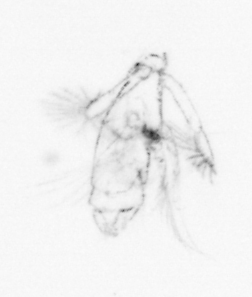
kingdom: Chromista
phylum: Ochrophyta
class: Bacillariophyceae
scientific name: Bacillariophyceae
